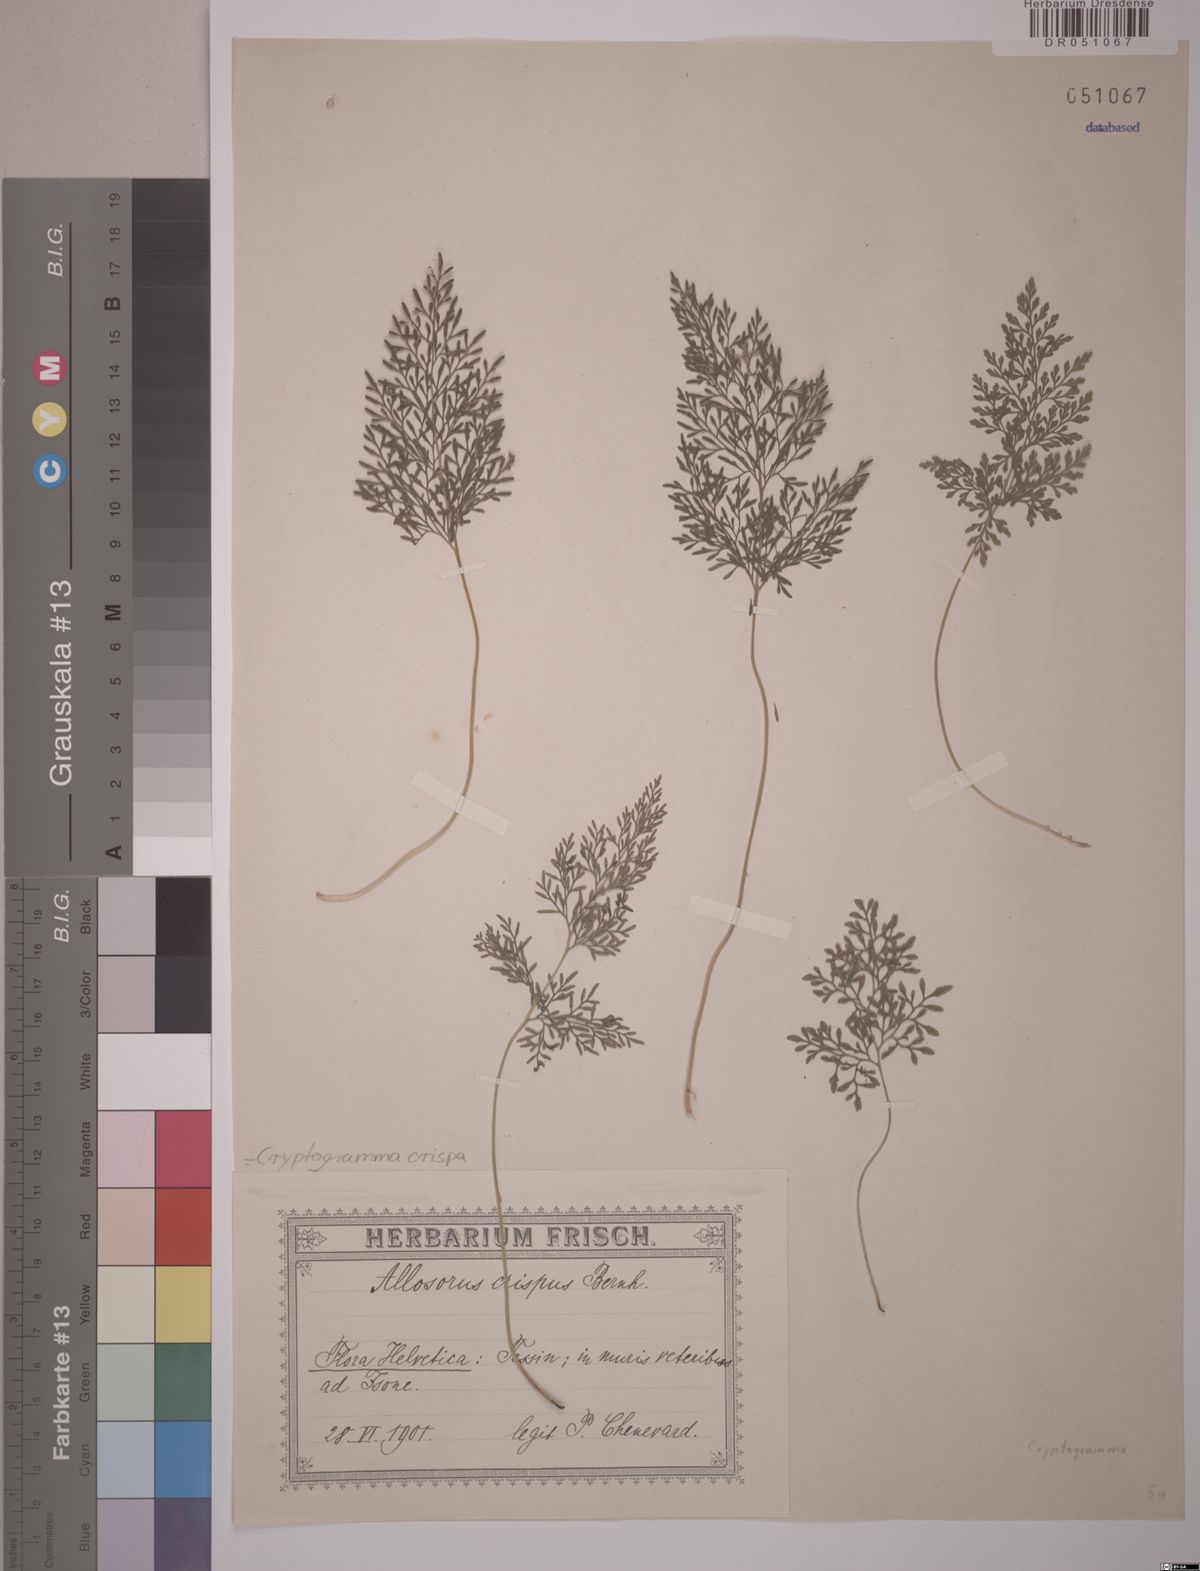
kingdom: Plantae
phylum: Tracheophyta
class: Polypodiopsida
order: Polypodiales
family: Pteridaceae
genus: Cryptogramma
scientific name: Cryptogramma crispa
